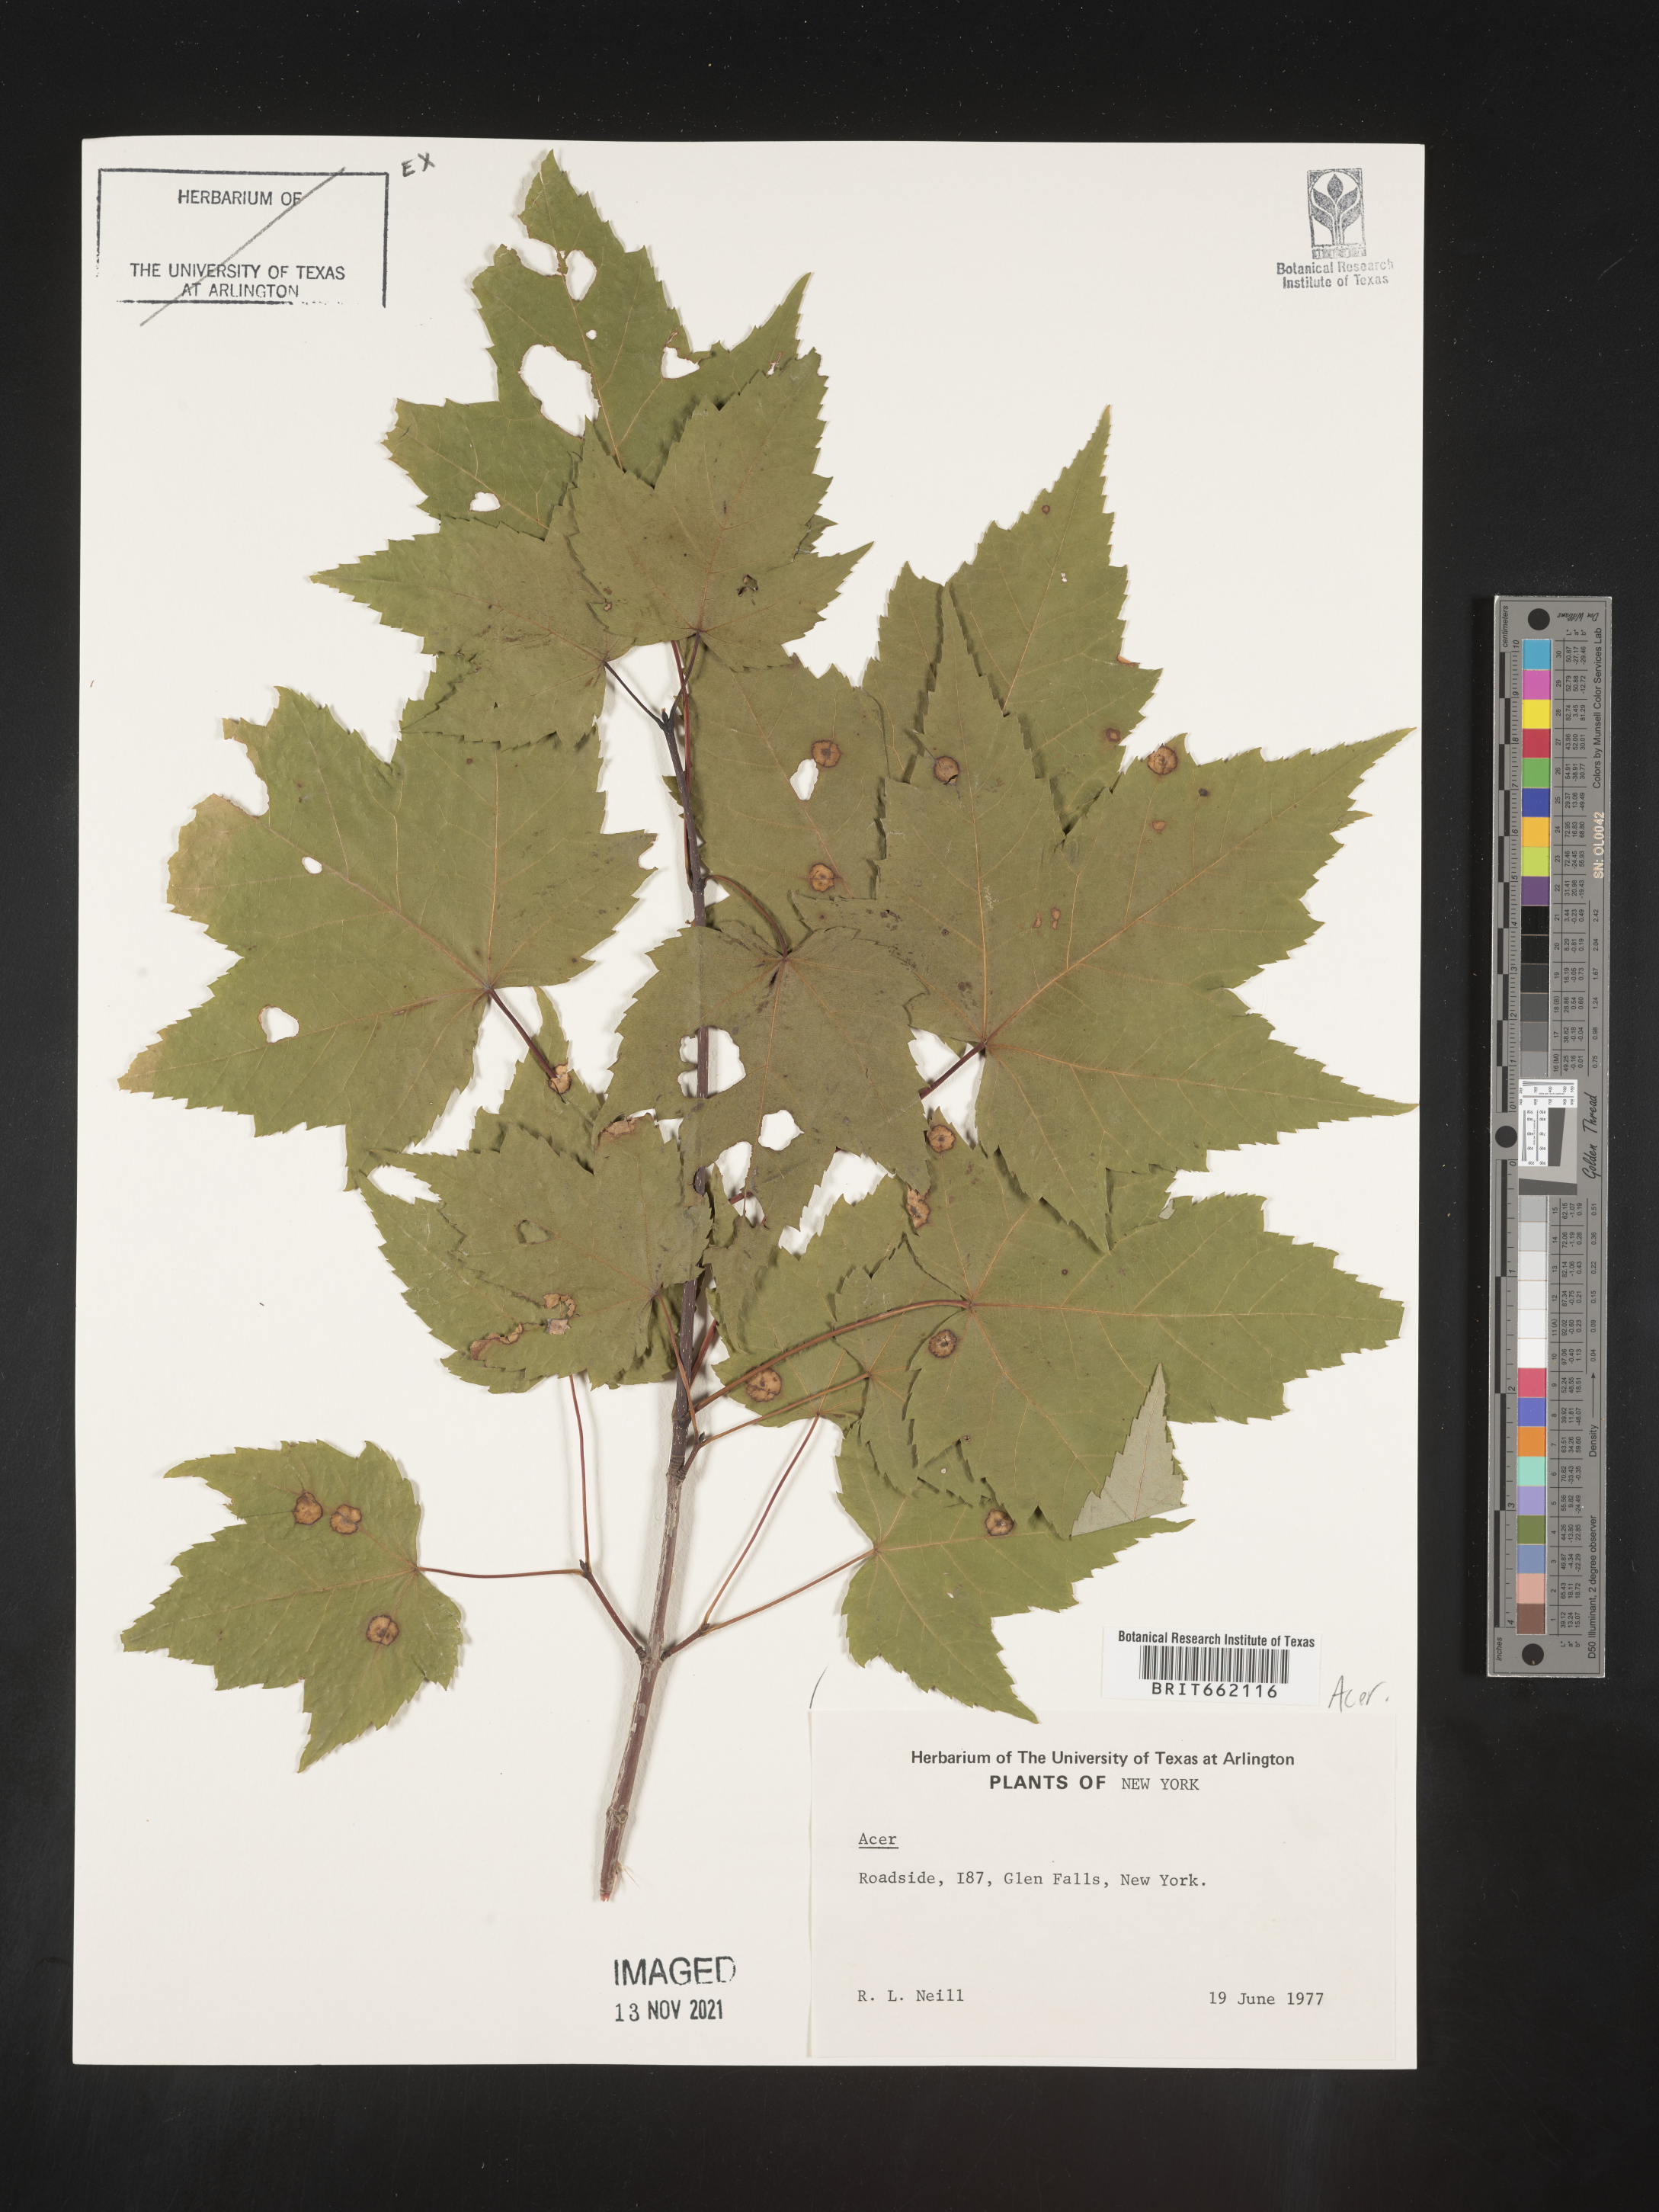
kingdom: Plantae
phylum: Tracheophyta
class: Magnoliopsida
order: Sapindales
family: Sapindaceae
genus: Acer
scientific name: Acer
